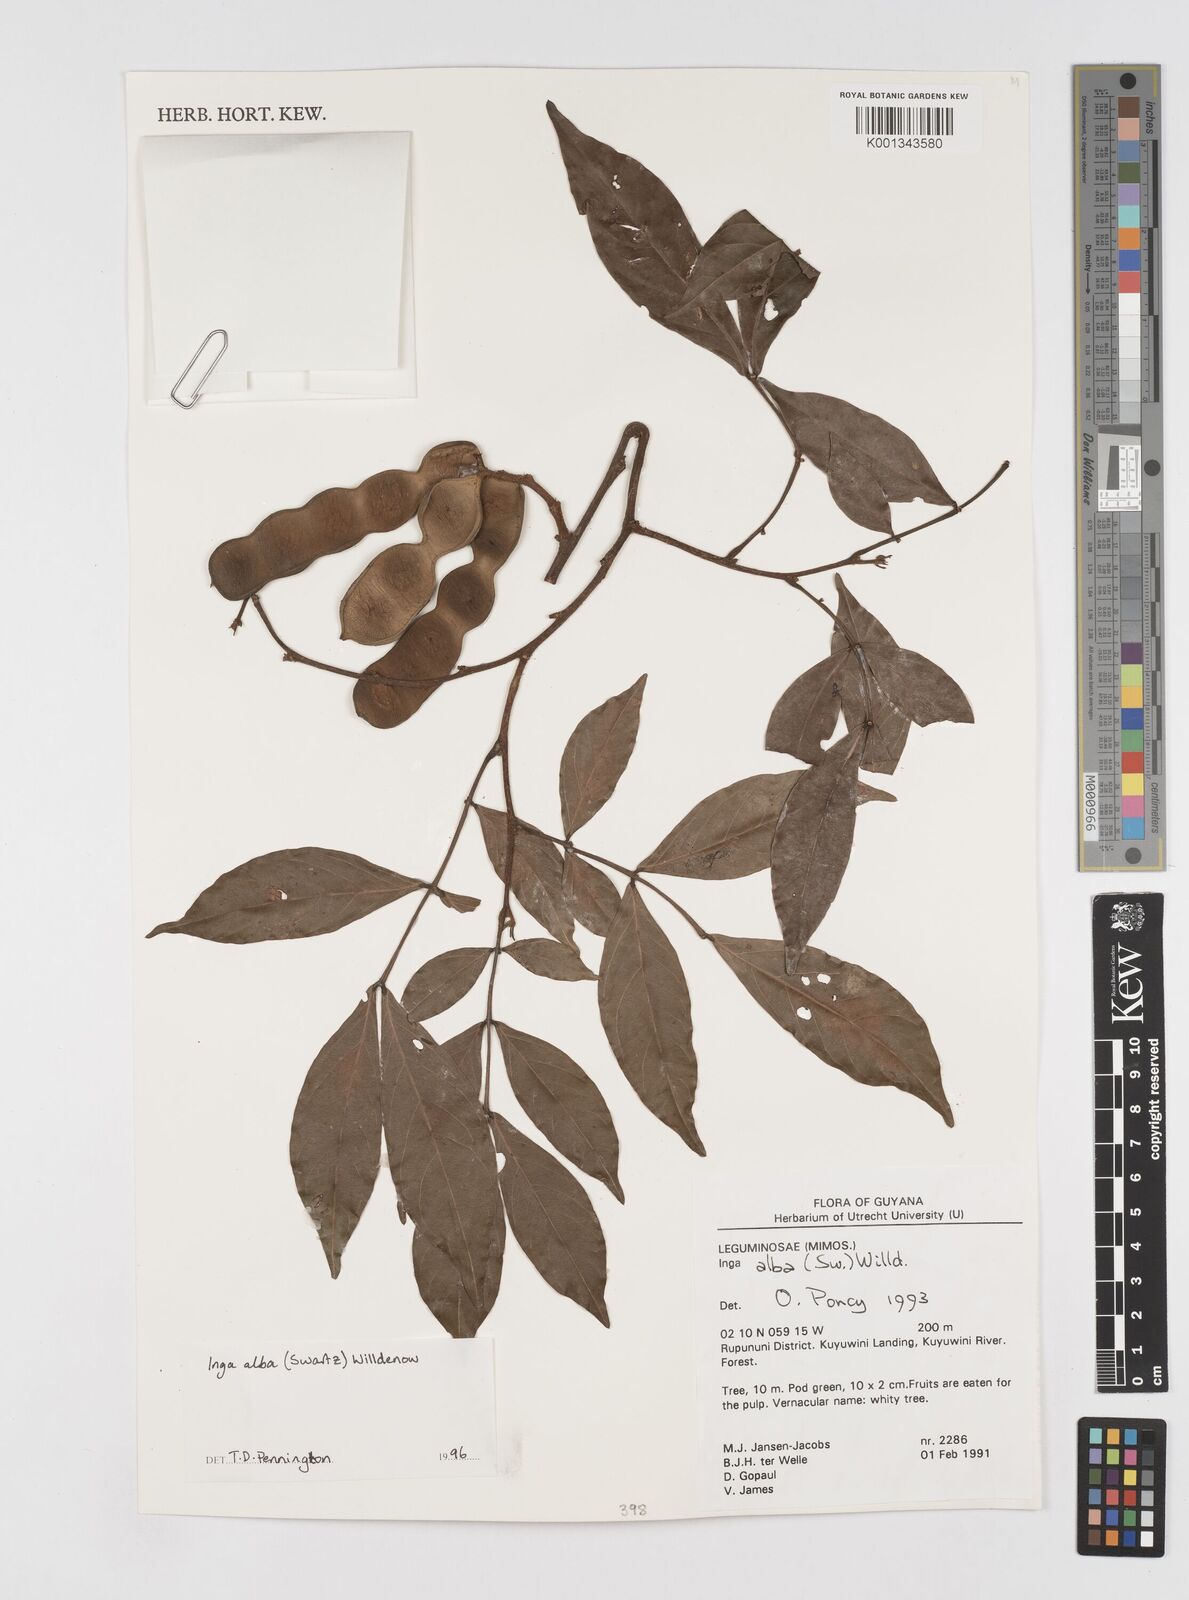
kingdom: Plantae
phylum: Tracheophyta
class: Magnoliopsida
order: Fabales
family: Fabaceae
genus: Inga
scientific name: Inga alba
